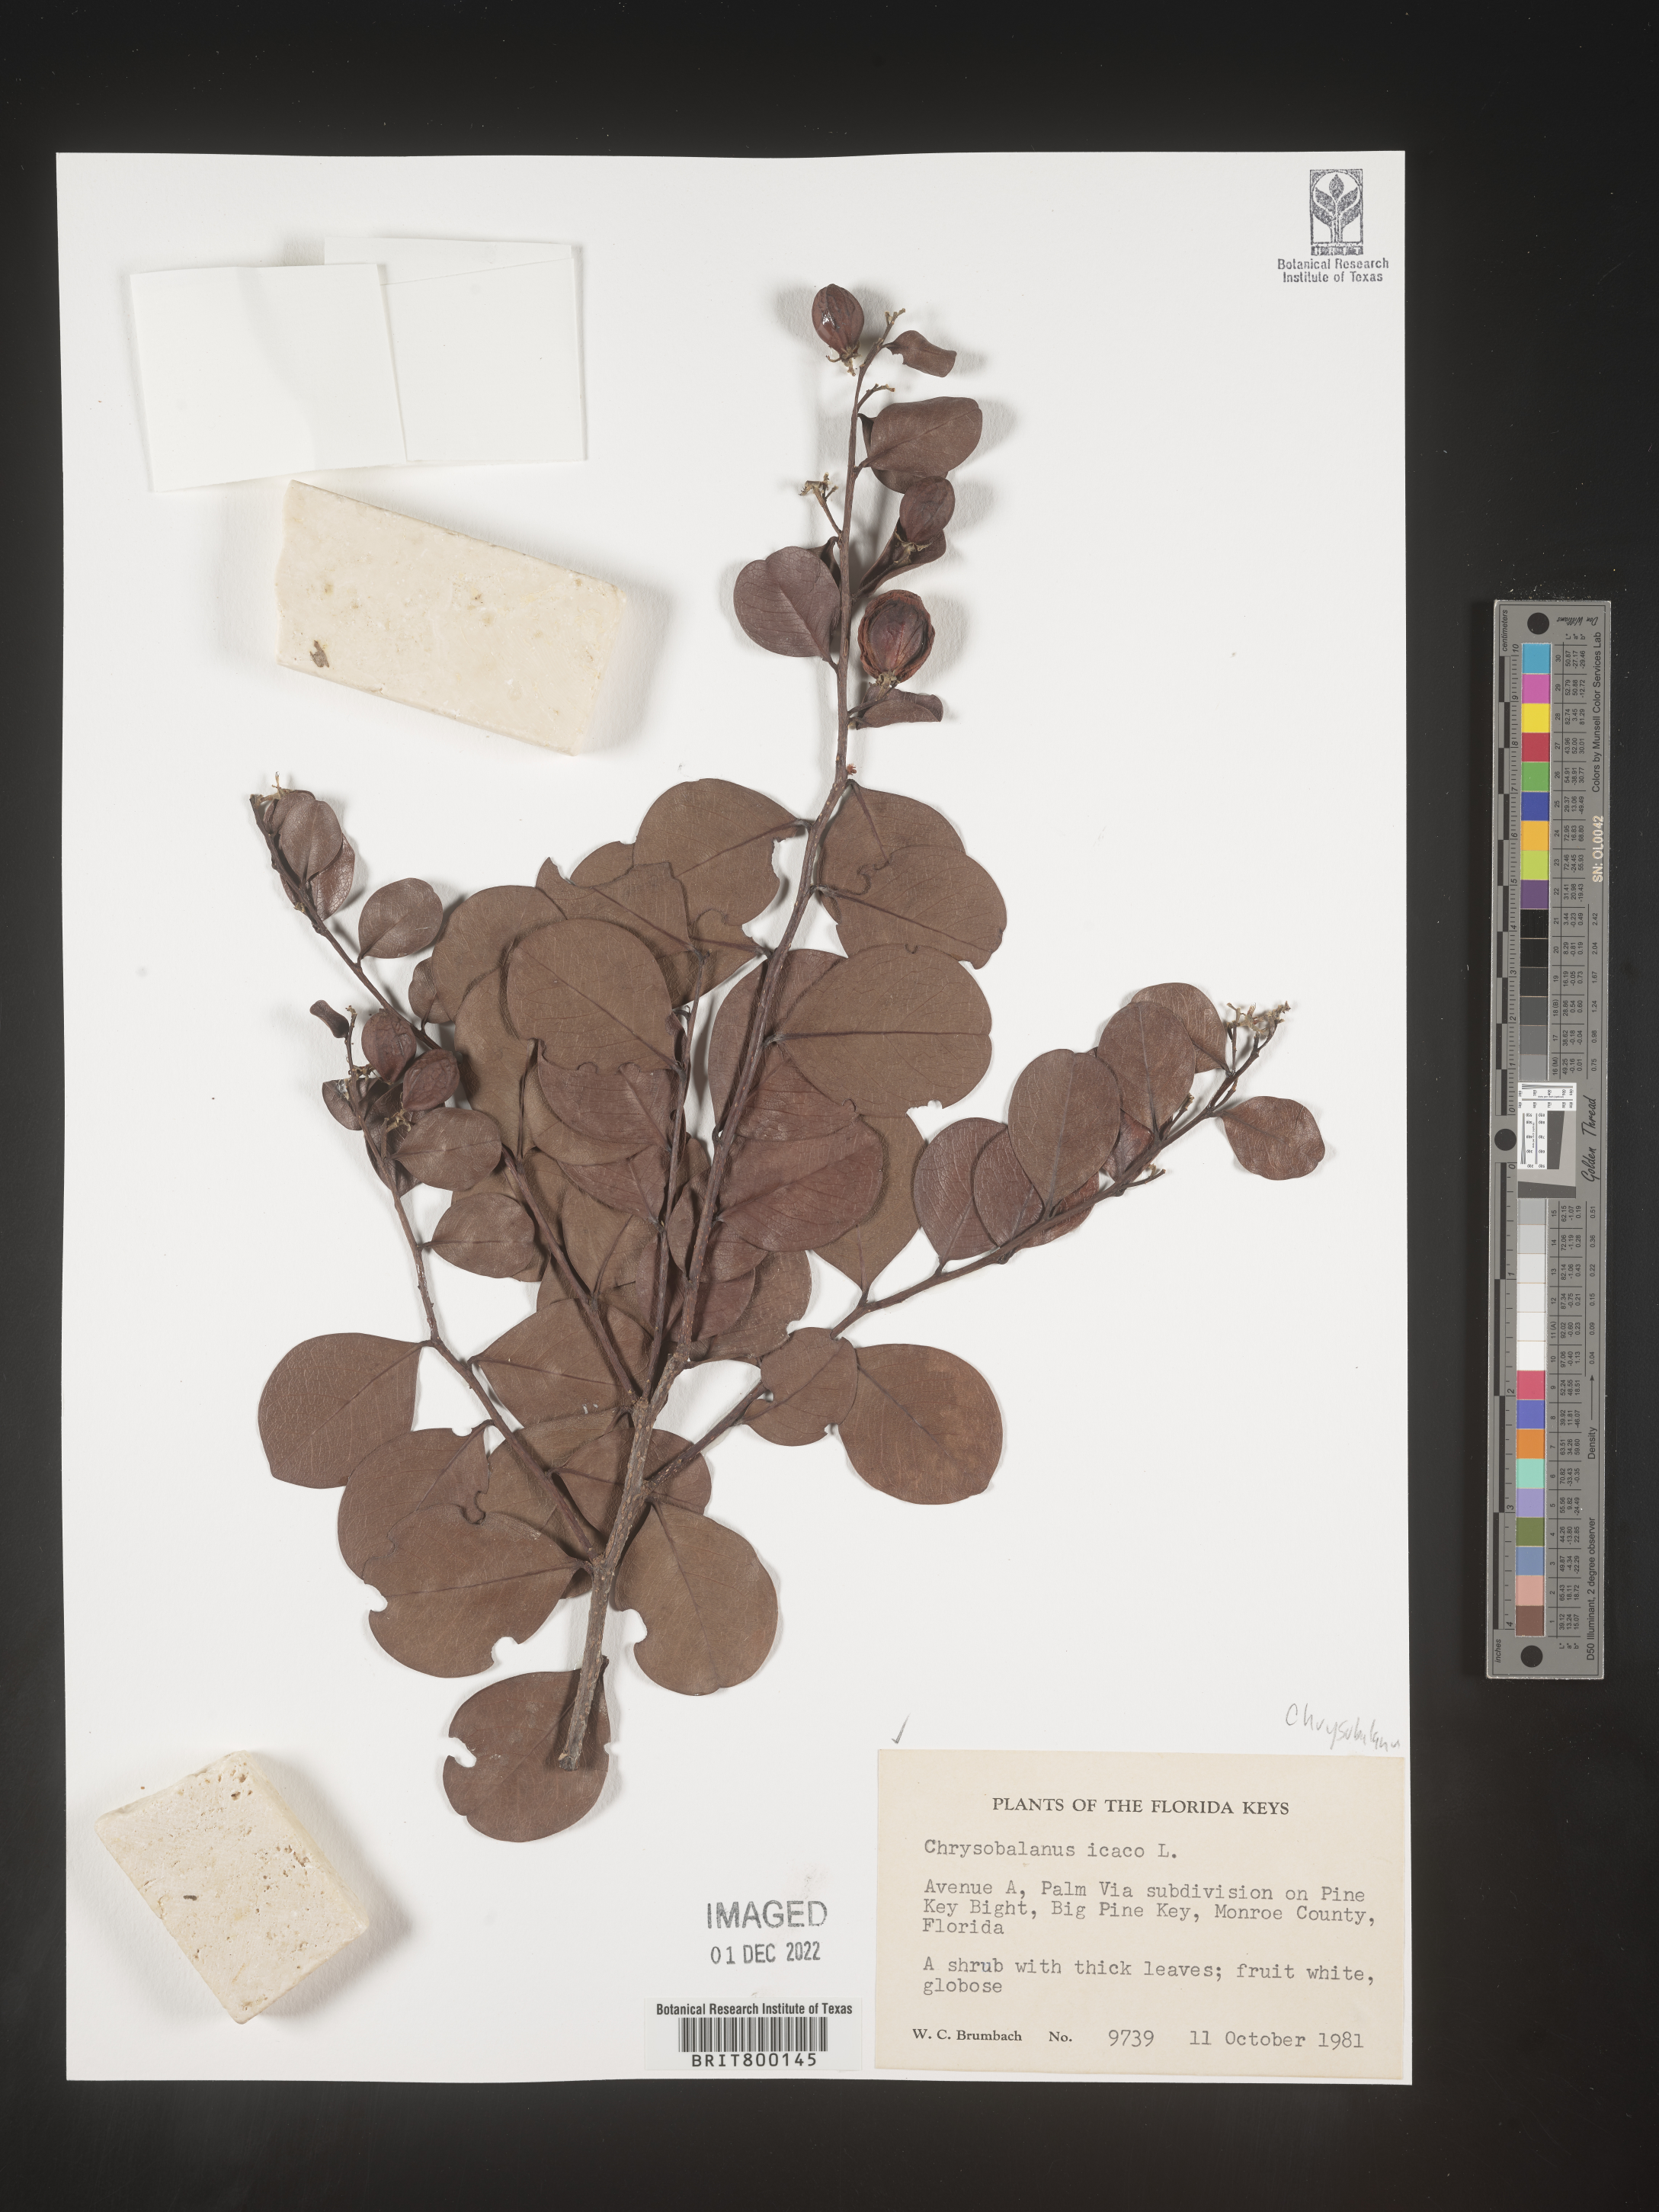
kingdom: Plantae
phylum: Tracheophyta
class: Magnoliopsida
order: Malpighiales
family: Chrysobalanaceae
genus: Chrysobalanus
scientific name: Chrysobalanus icaco
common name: Coco plum
